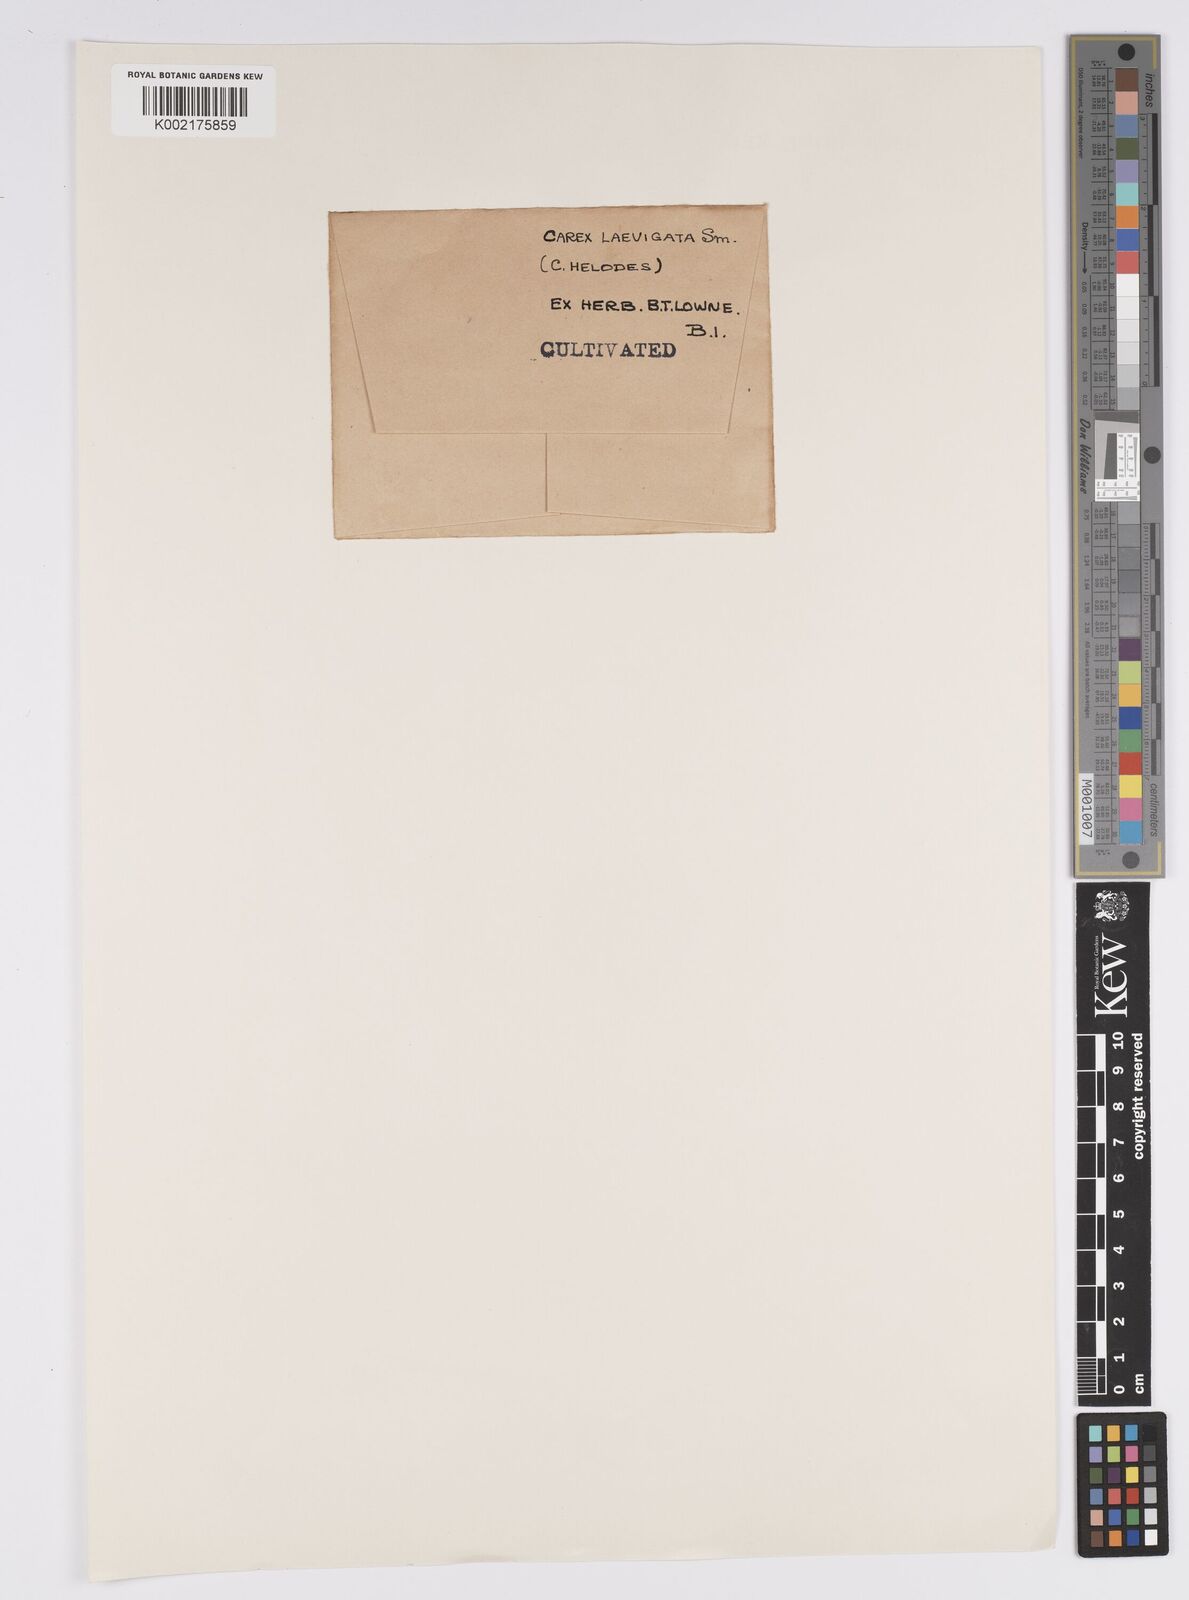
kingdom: Plantae
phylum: Tracheophyta
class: Liliopsida
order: Poales
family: Cyperaceae
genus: Carex
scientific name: Carex laevigata
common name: Smooth-stalked sedge
